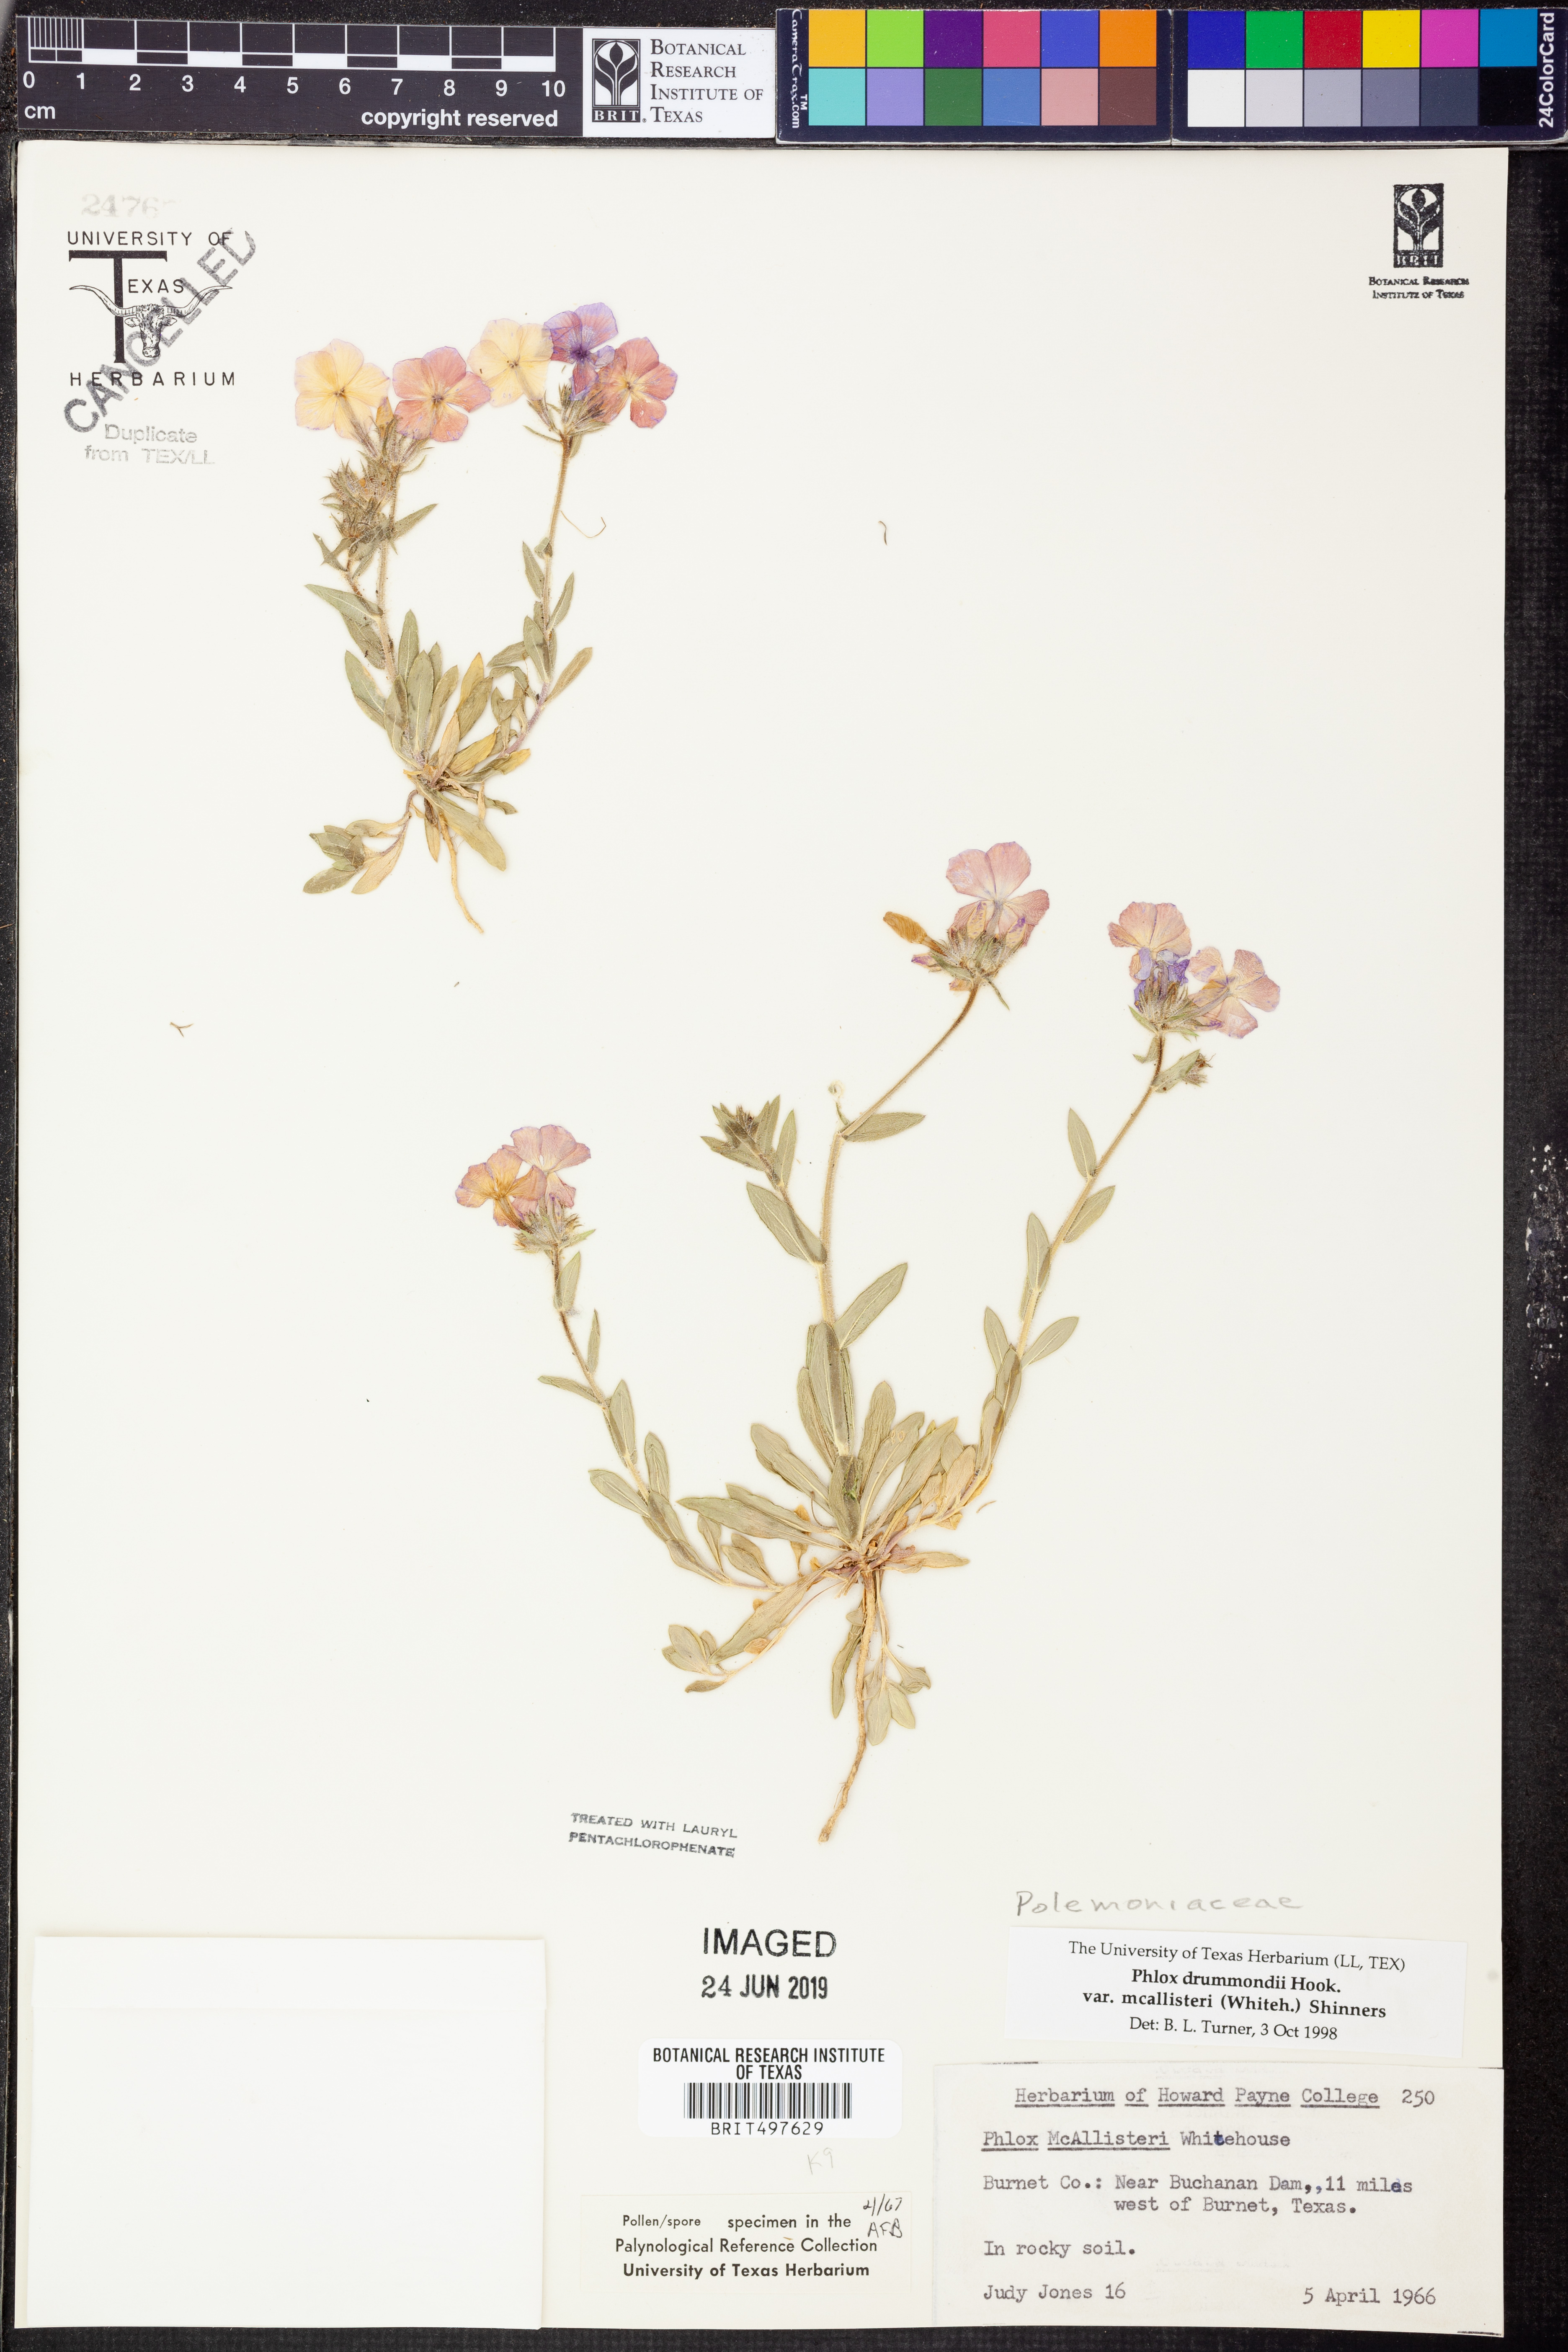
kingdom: Plantae
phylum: Tracheophyta
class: Magnoliopsida
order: Ericales
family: Polemoniaceae
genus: Phlox
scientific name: Phlox drummondii
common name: Drummond's phlox
